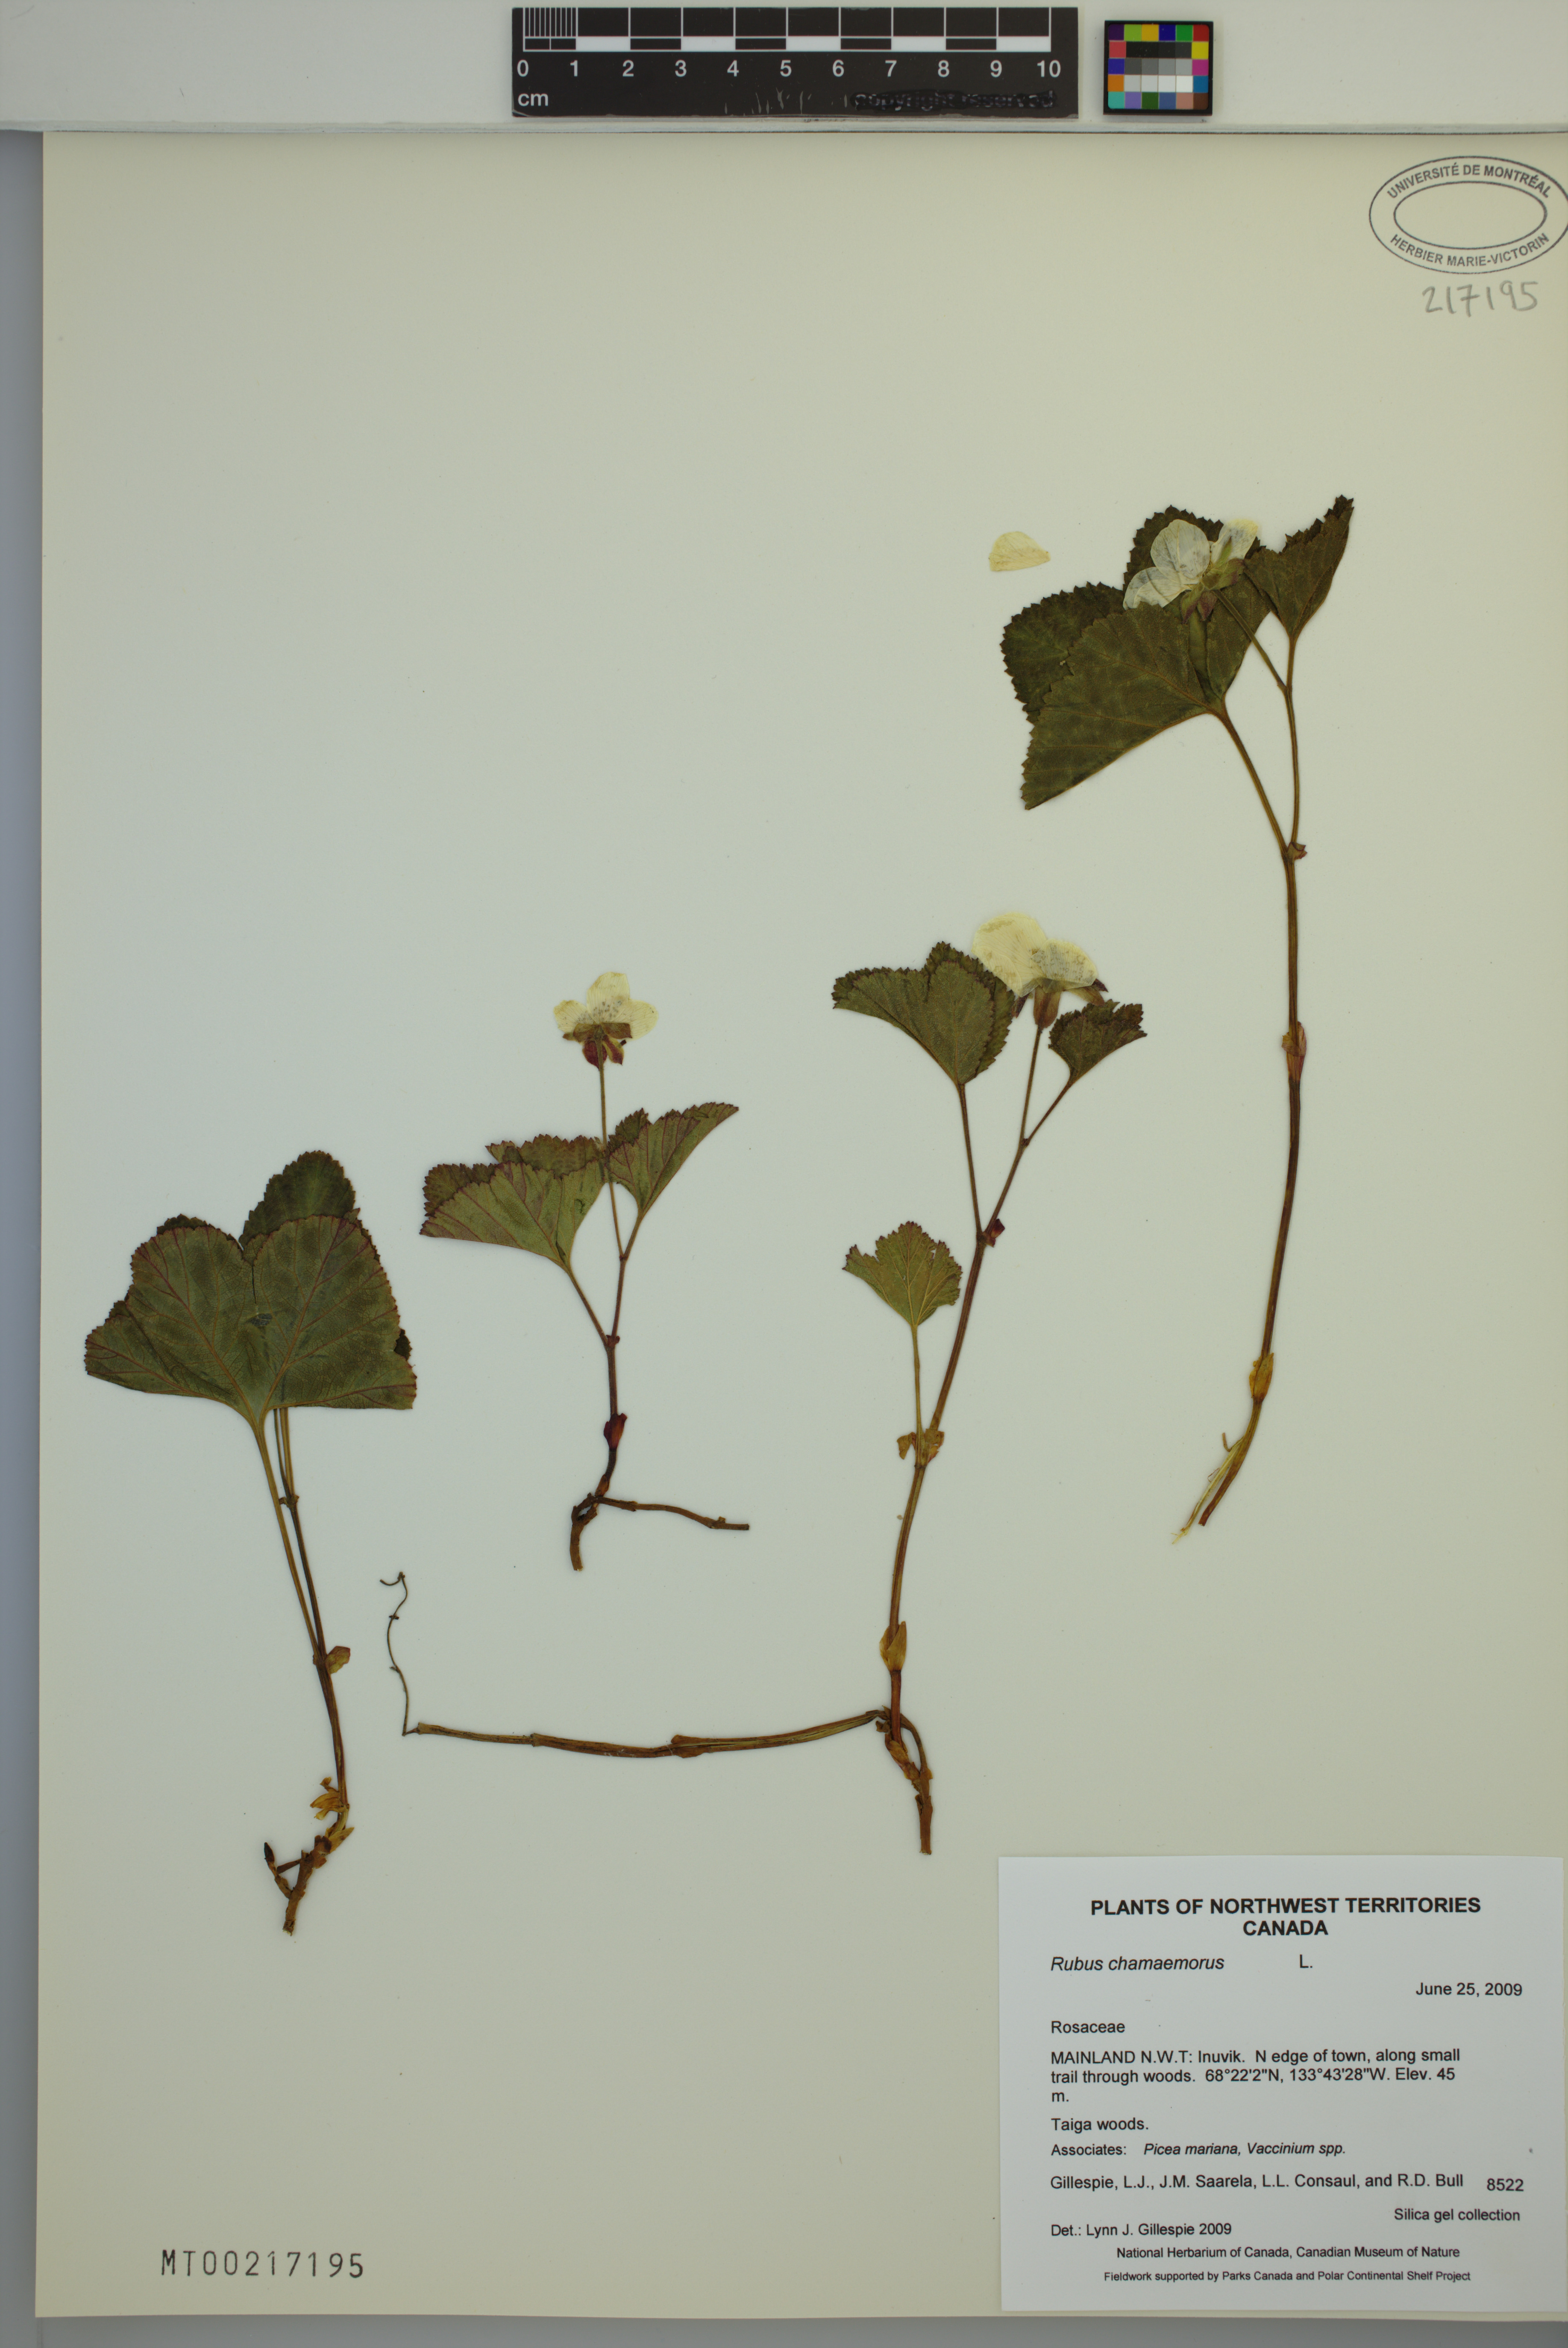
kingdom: Plantae
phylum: Tracheophyta
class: Magnoliopsida
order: Rosales
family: Rosaceae
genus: Rubus
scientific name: Rubus chamaemorus
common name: Cloudberry
